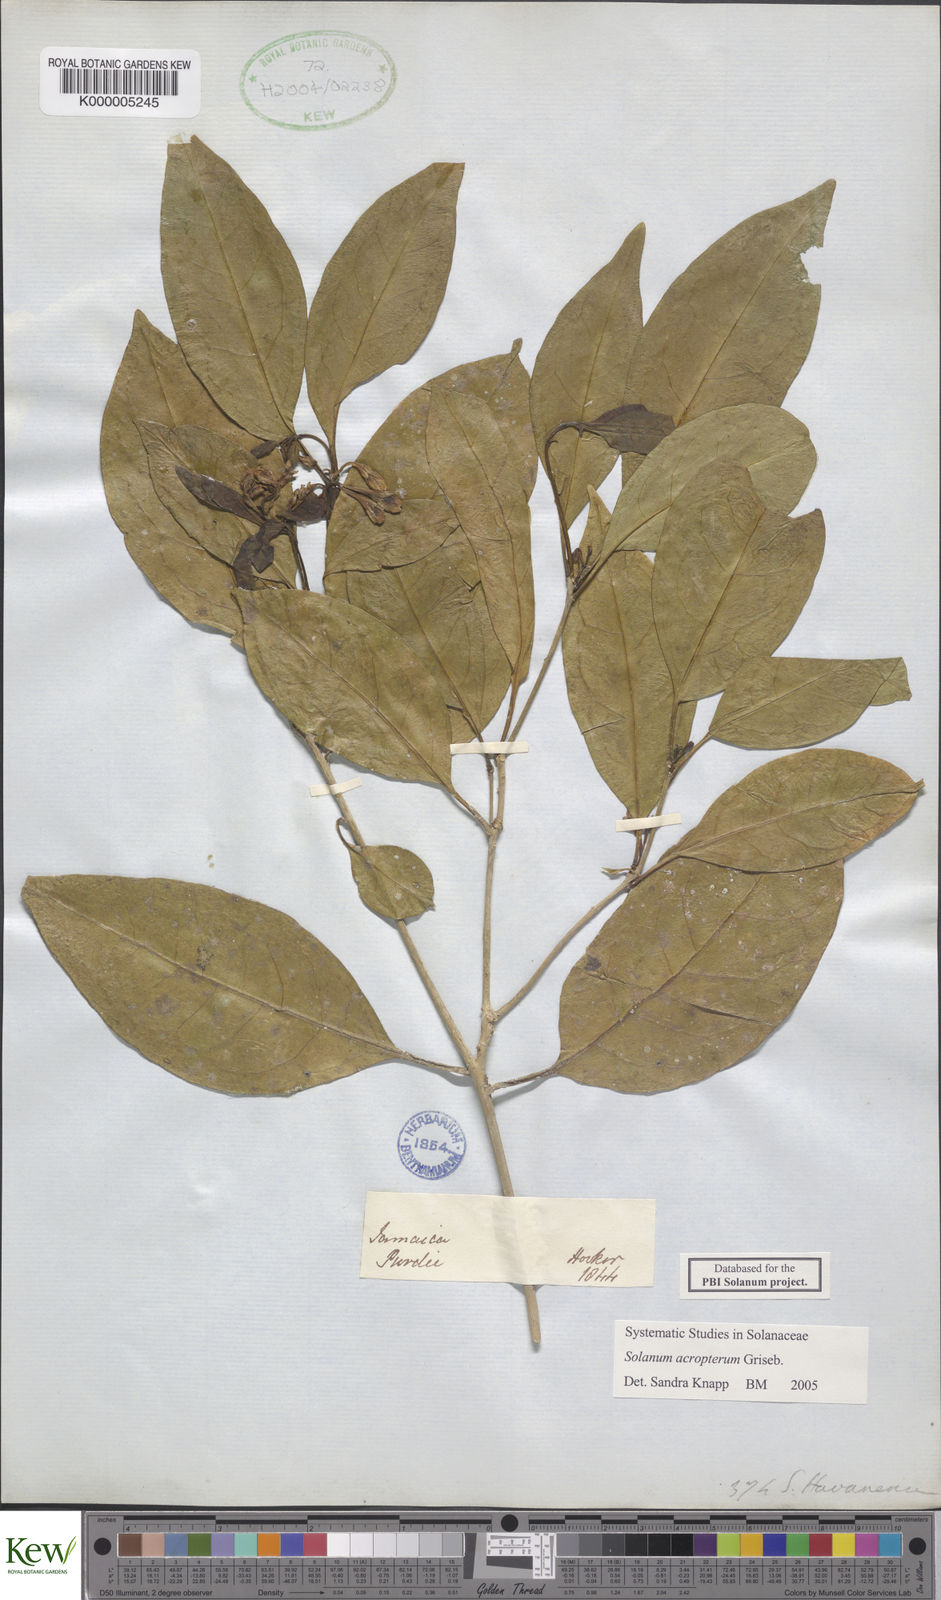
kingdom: Plantae
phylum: Tracheophyta
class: Magnoliopsida
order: Solanales
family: Solanaceae
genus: Solanum
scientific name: Solanum acropterum
